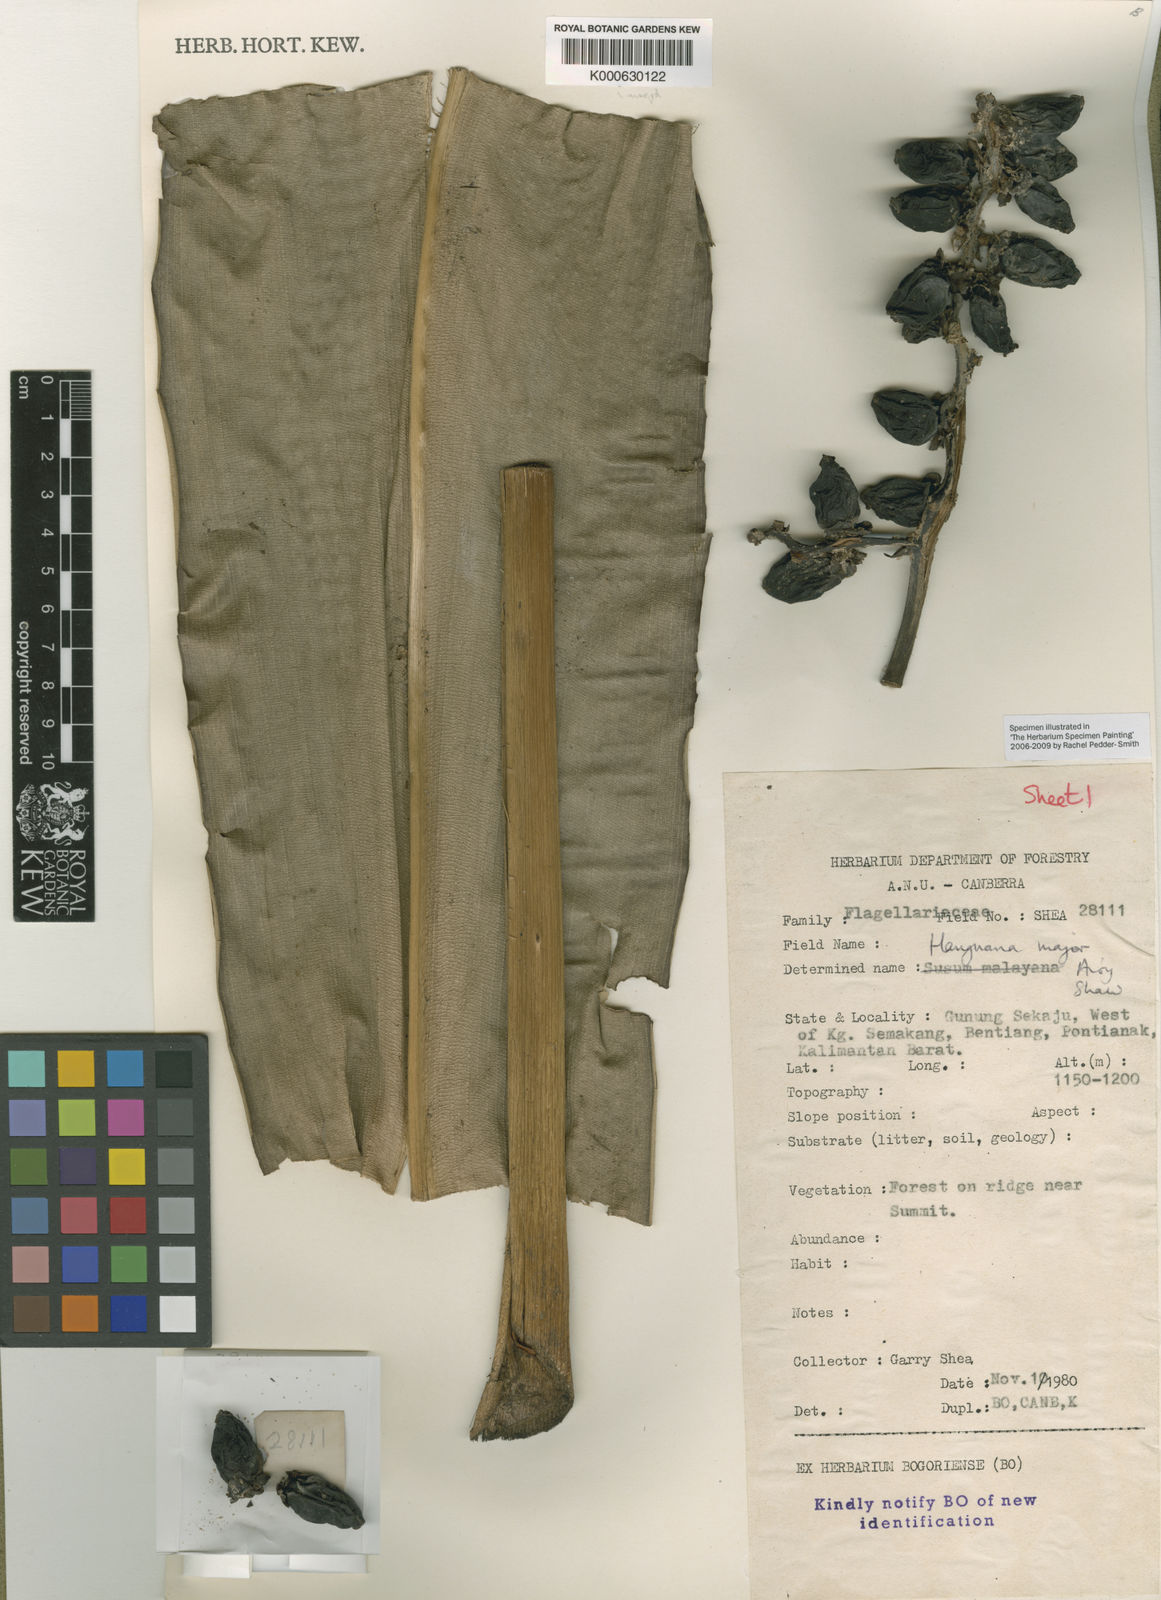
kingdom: Plantae
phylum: Tracheophyta
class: Liliopsida
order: Commelinales
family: Hanguanaceae
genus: Hanguana
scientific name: Hanguana major
